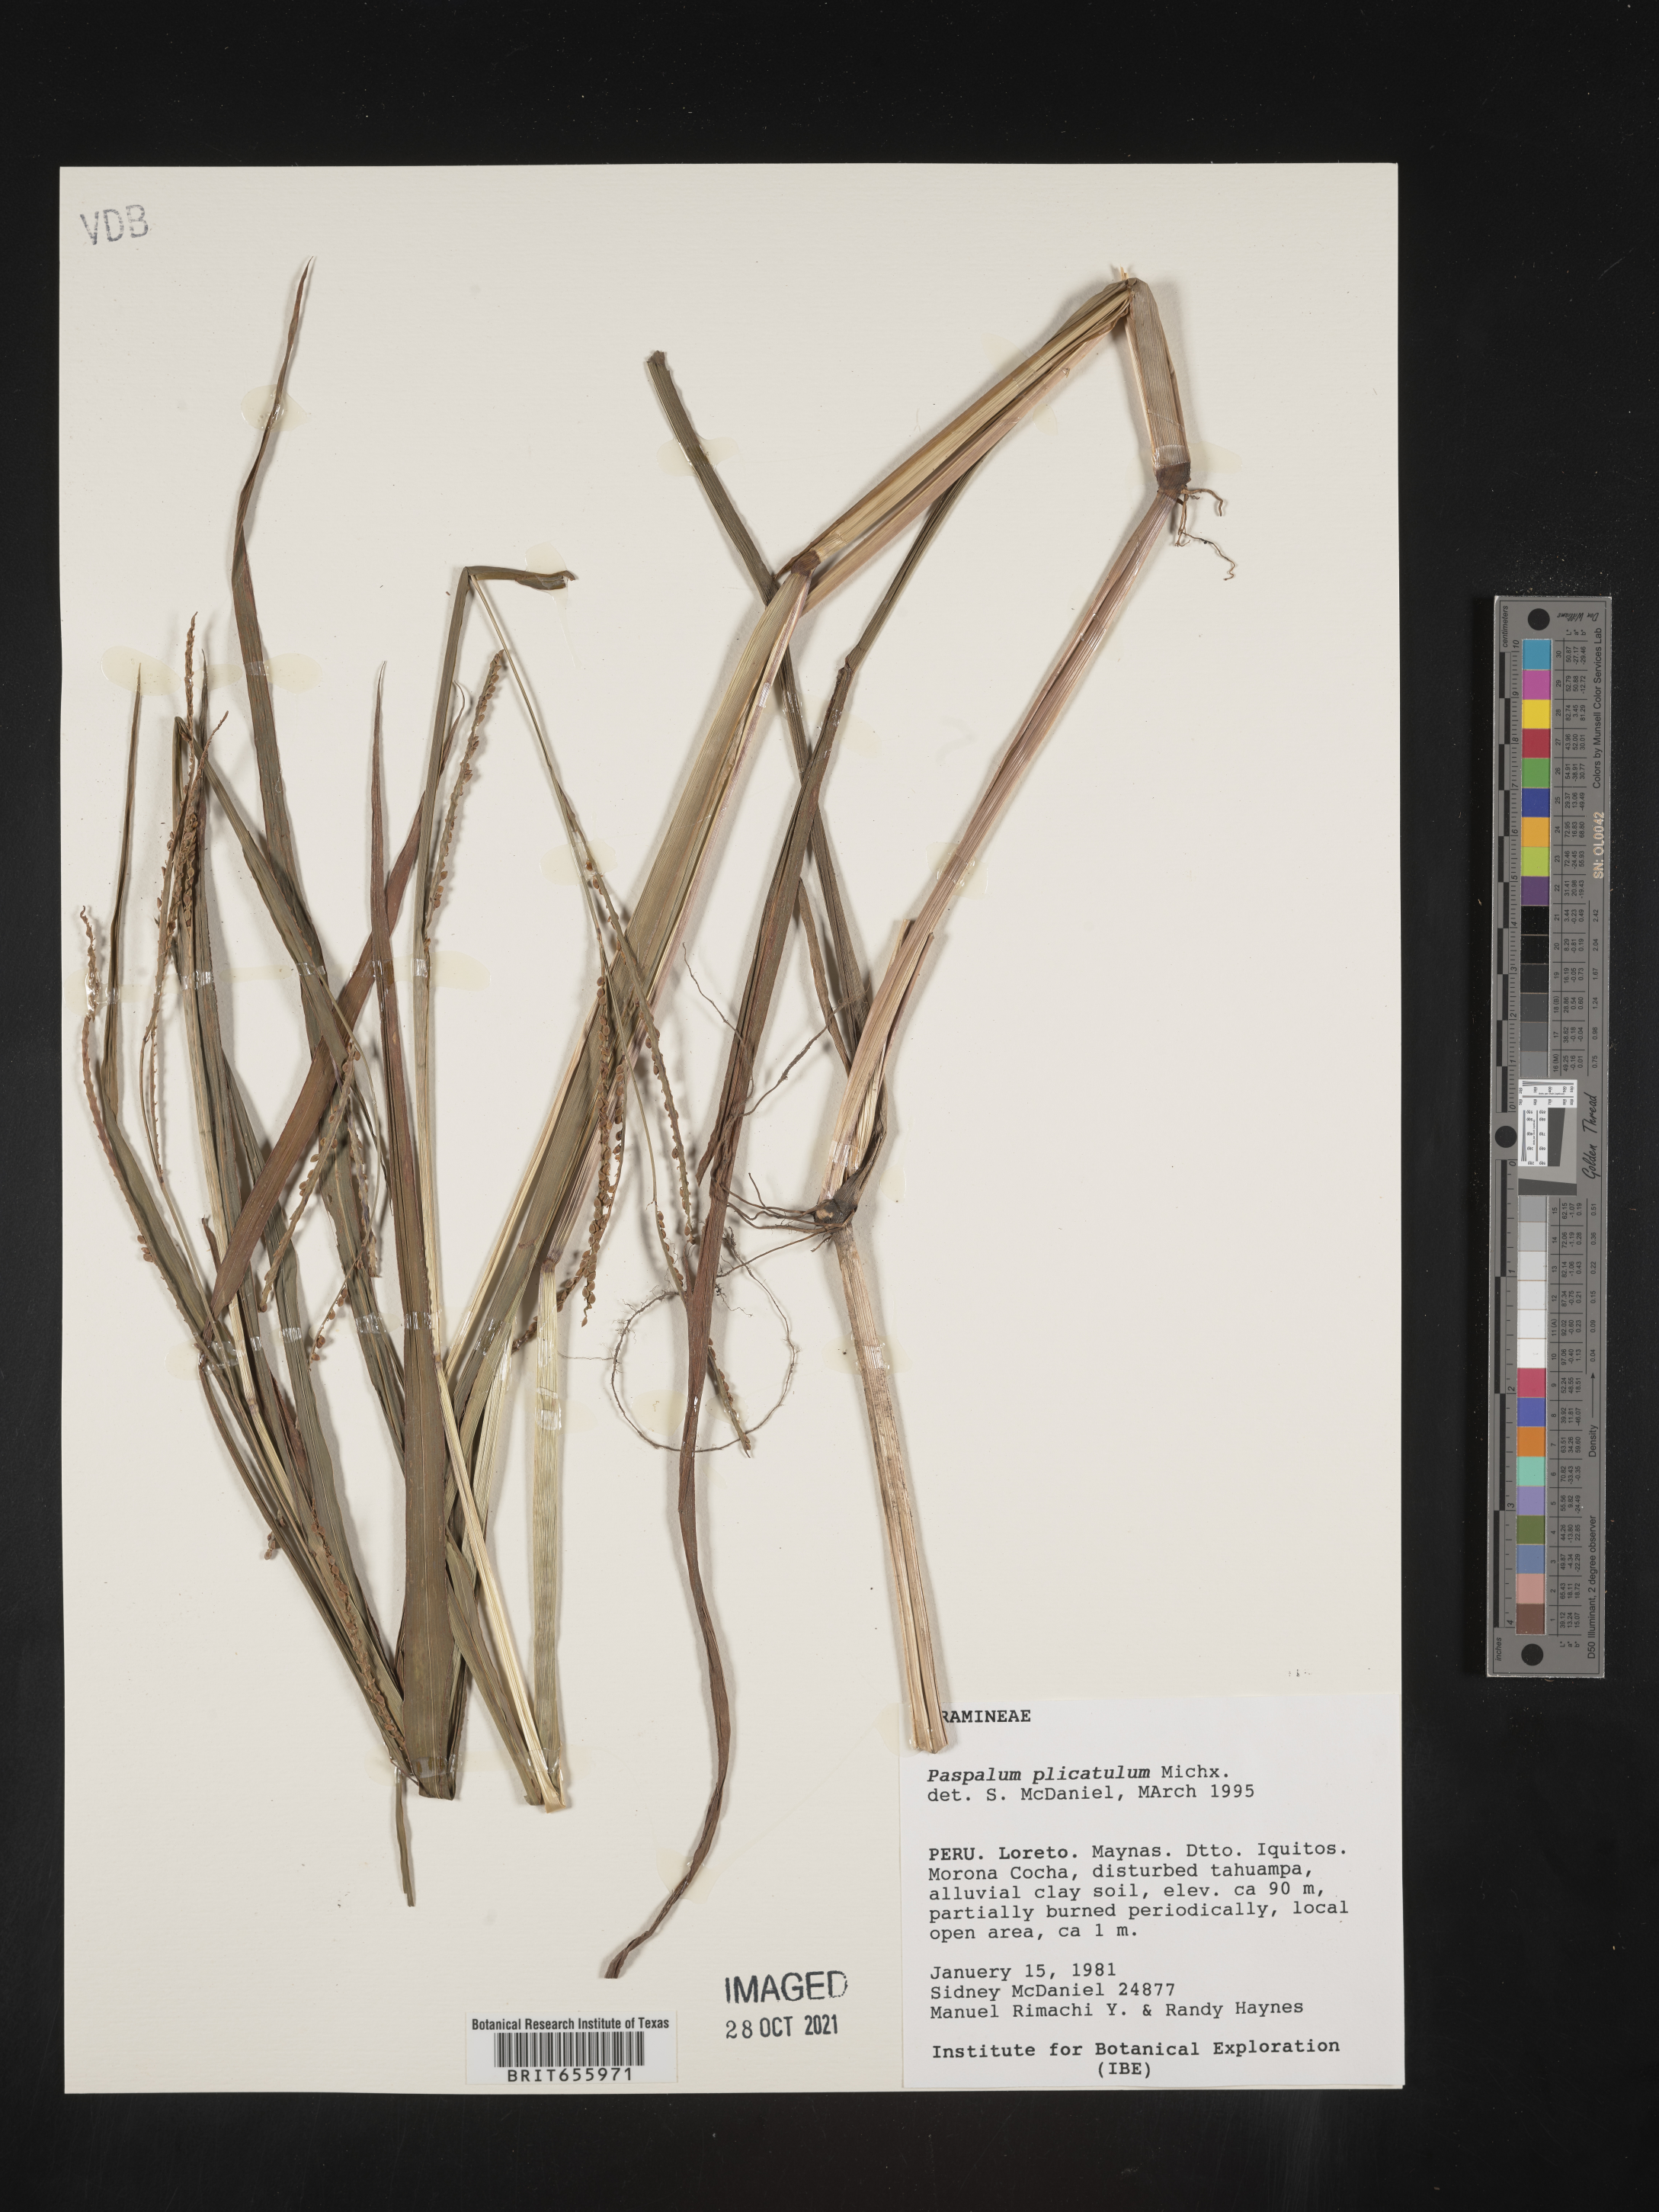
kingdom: Plantae
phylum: Tracheophyta
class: Liliopsida
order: Poales
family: Poaceae
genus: Paspalum
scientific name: Paspalum
